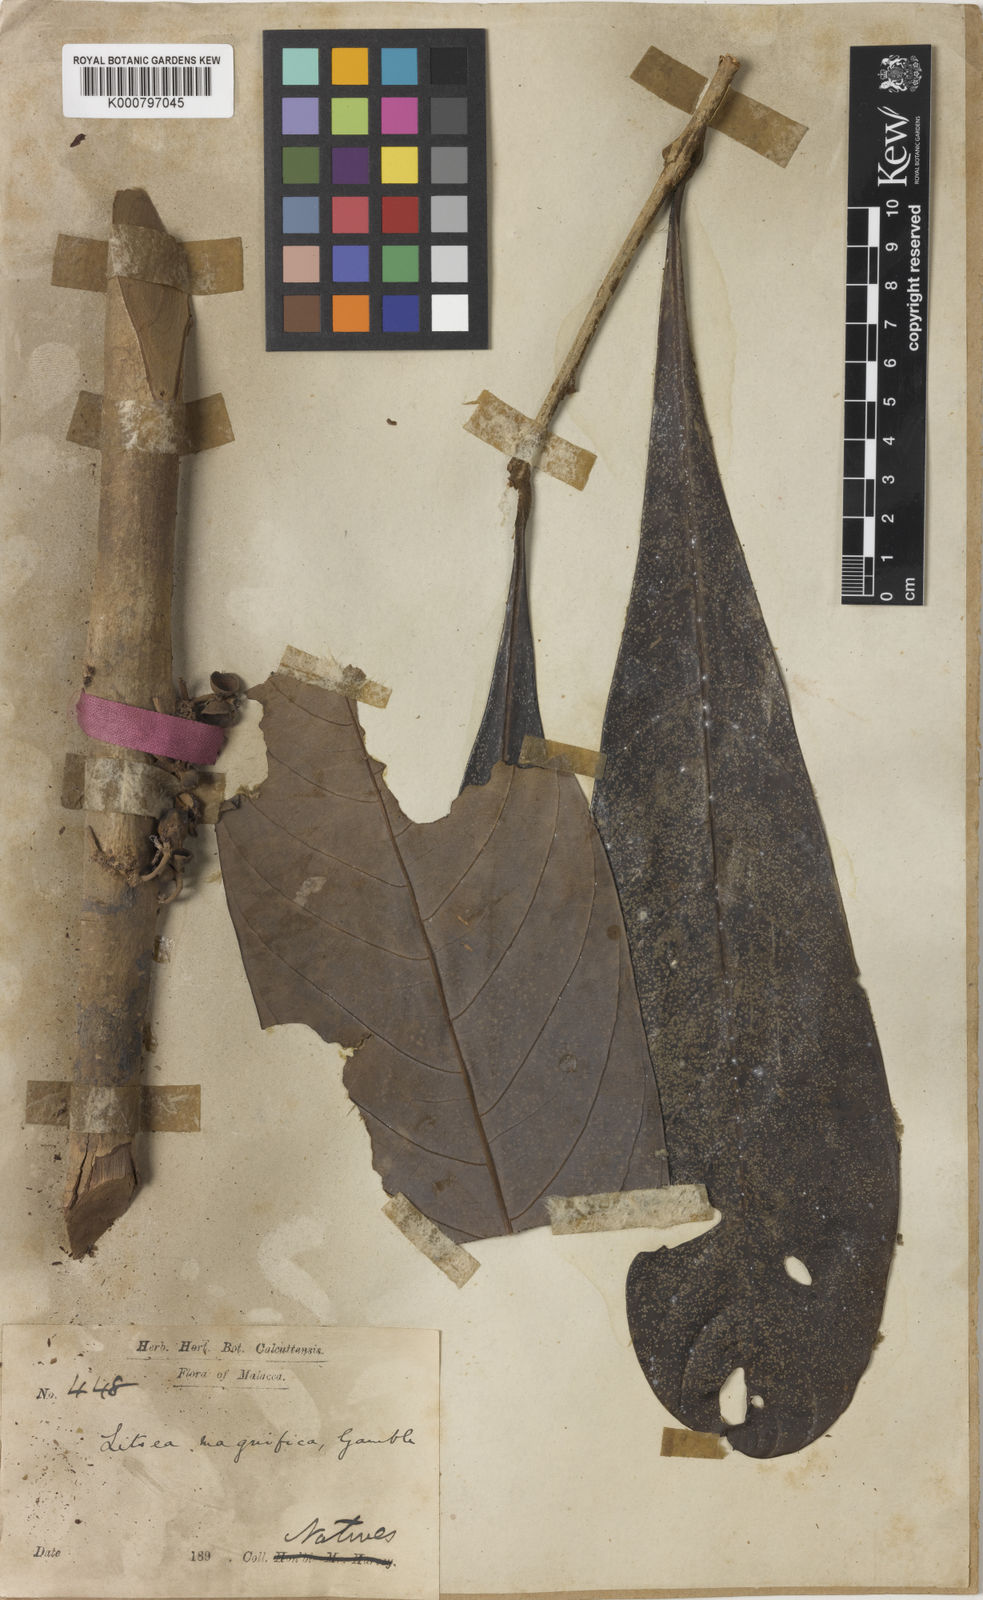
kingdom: Plantae
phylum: Tracheophyta
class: Magnoliopsida
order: Laurales
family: Lauraceae
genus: Litsea
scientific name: Litsea johorensis
